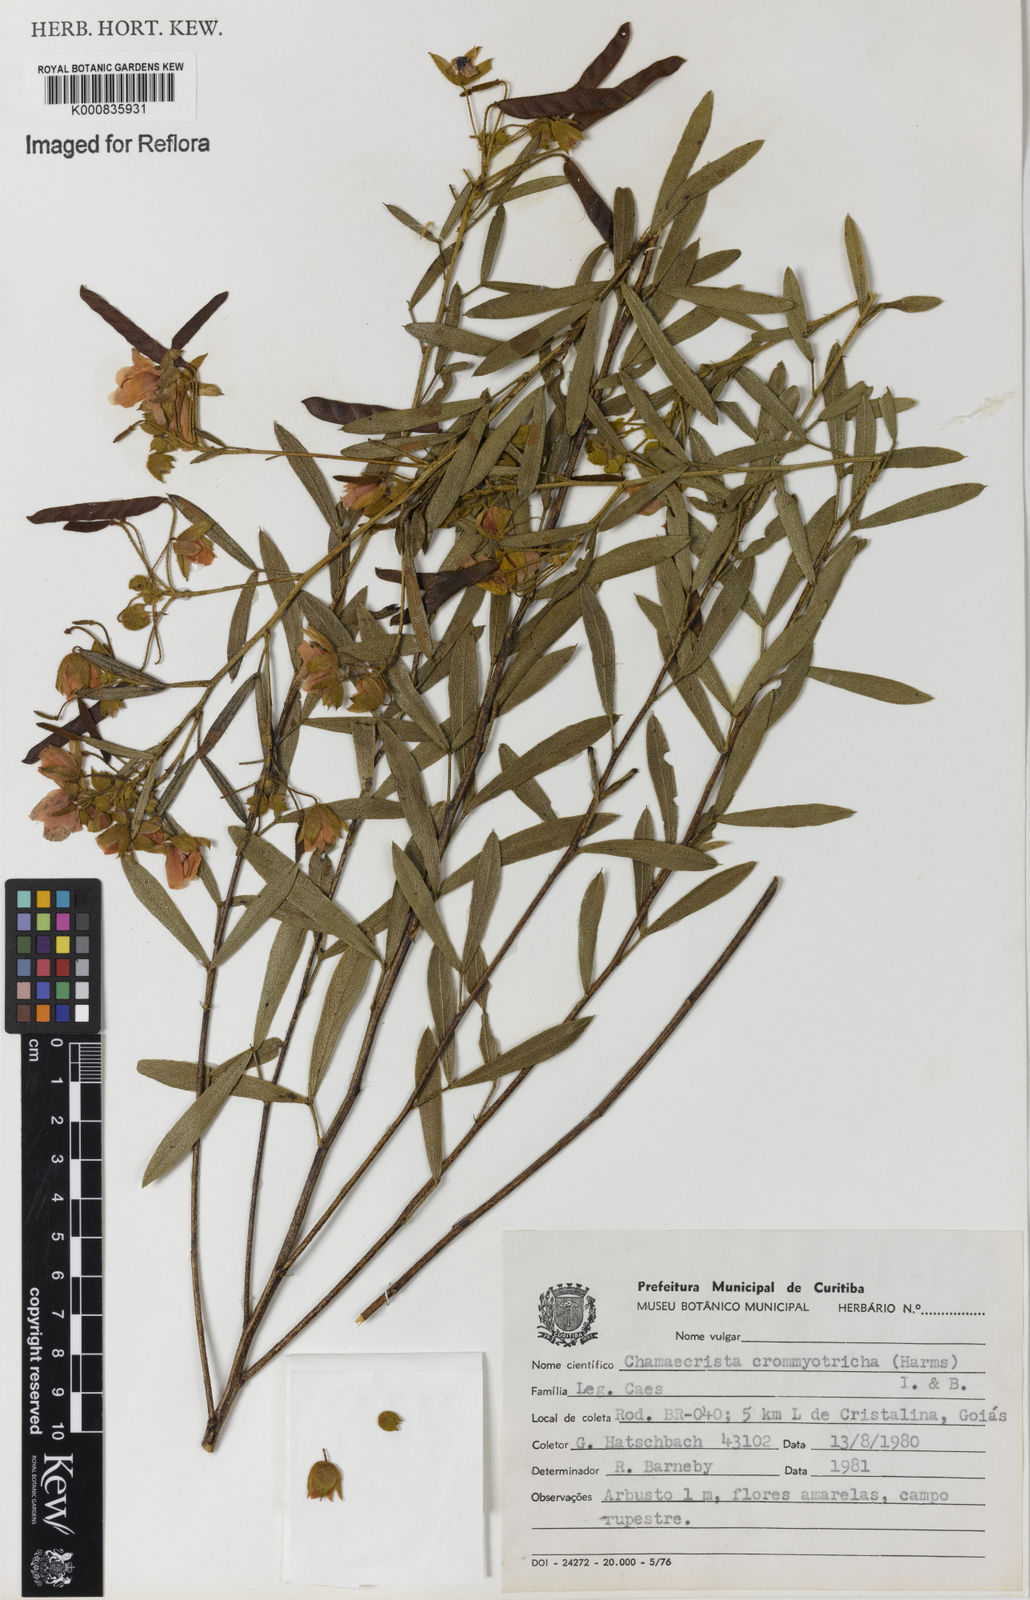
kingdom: Plantae
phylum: Tracheophyta
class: Magnoliopsida
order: Fabales
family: Fabaceae
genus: Chamaecrista
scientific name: Chamaecrista crommyotricha
